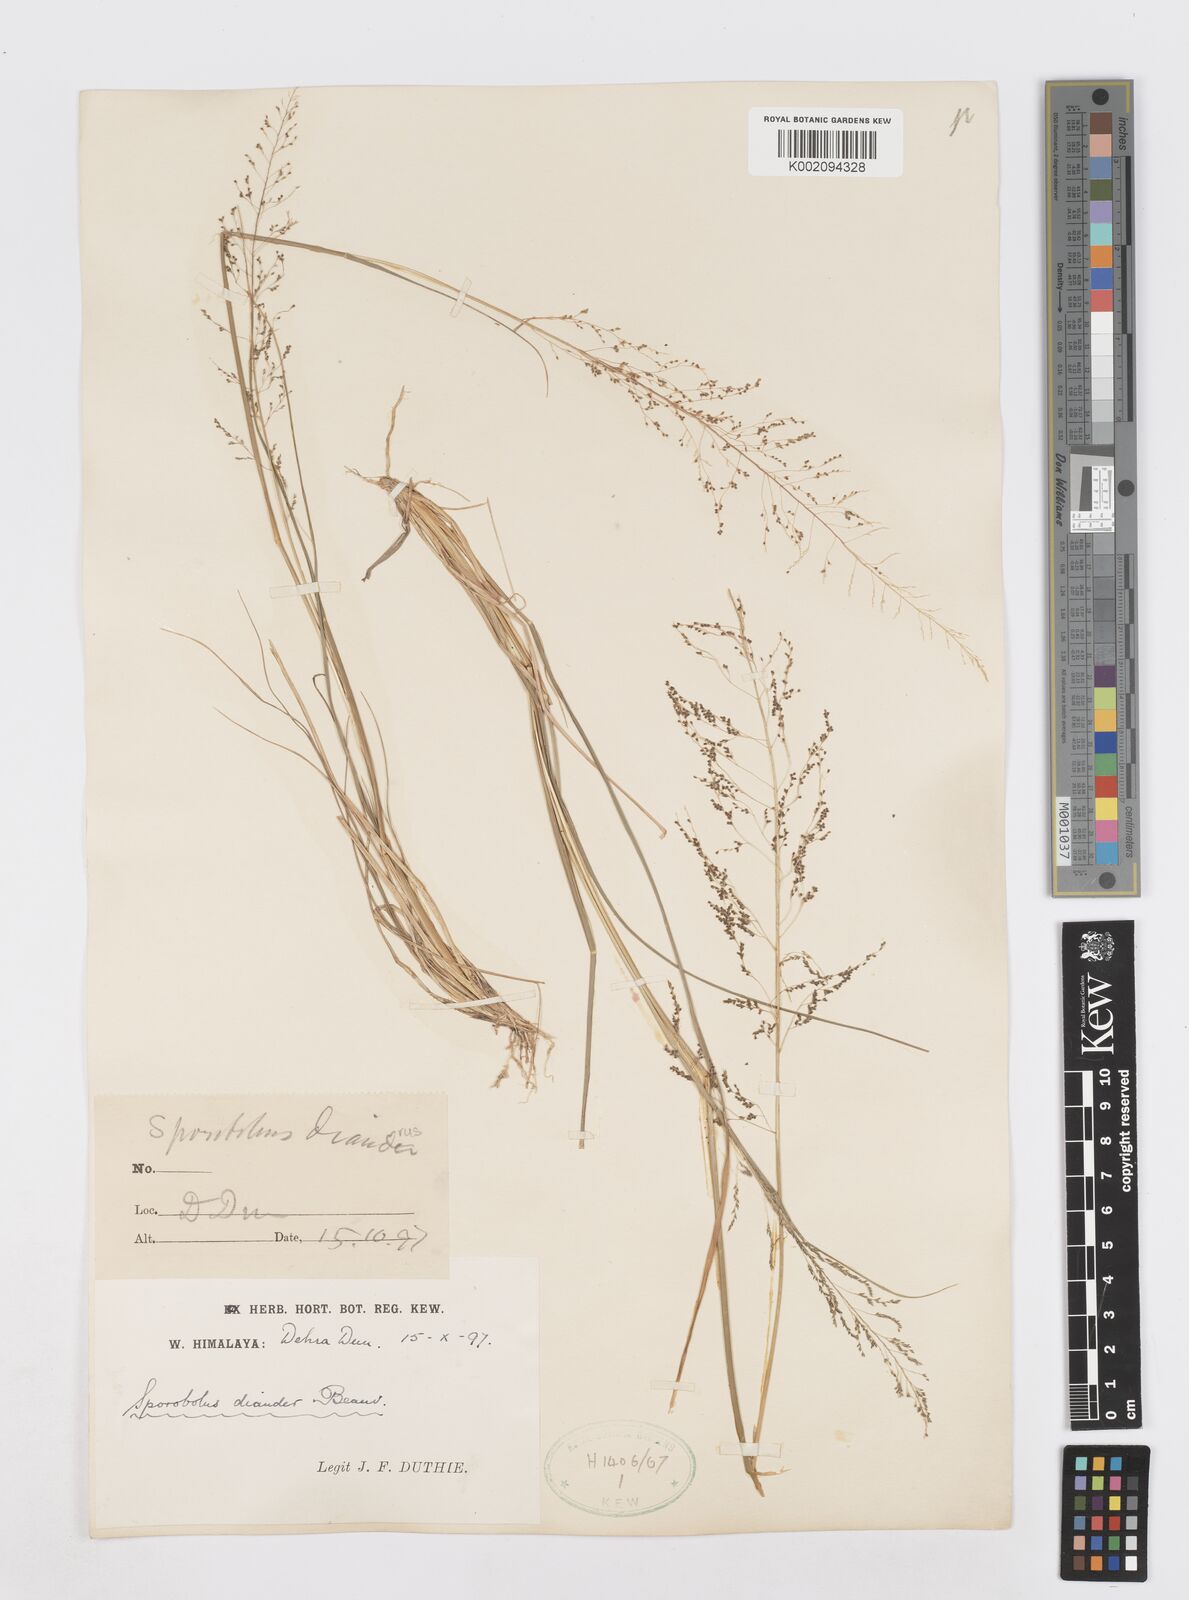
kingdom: Plantae
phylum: Tracheophyta
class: Liliopsida
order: Poales
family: Poaceae
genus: Sporobolus
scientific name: Sporobolus diandrus
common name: Tussock dropseed
